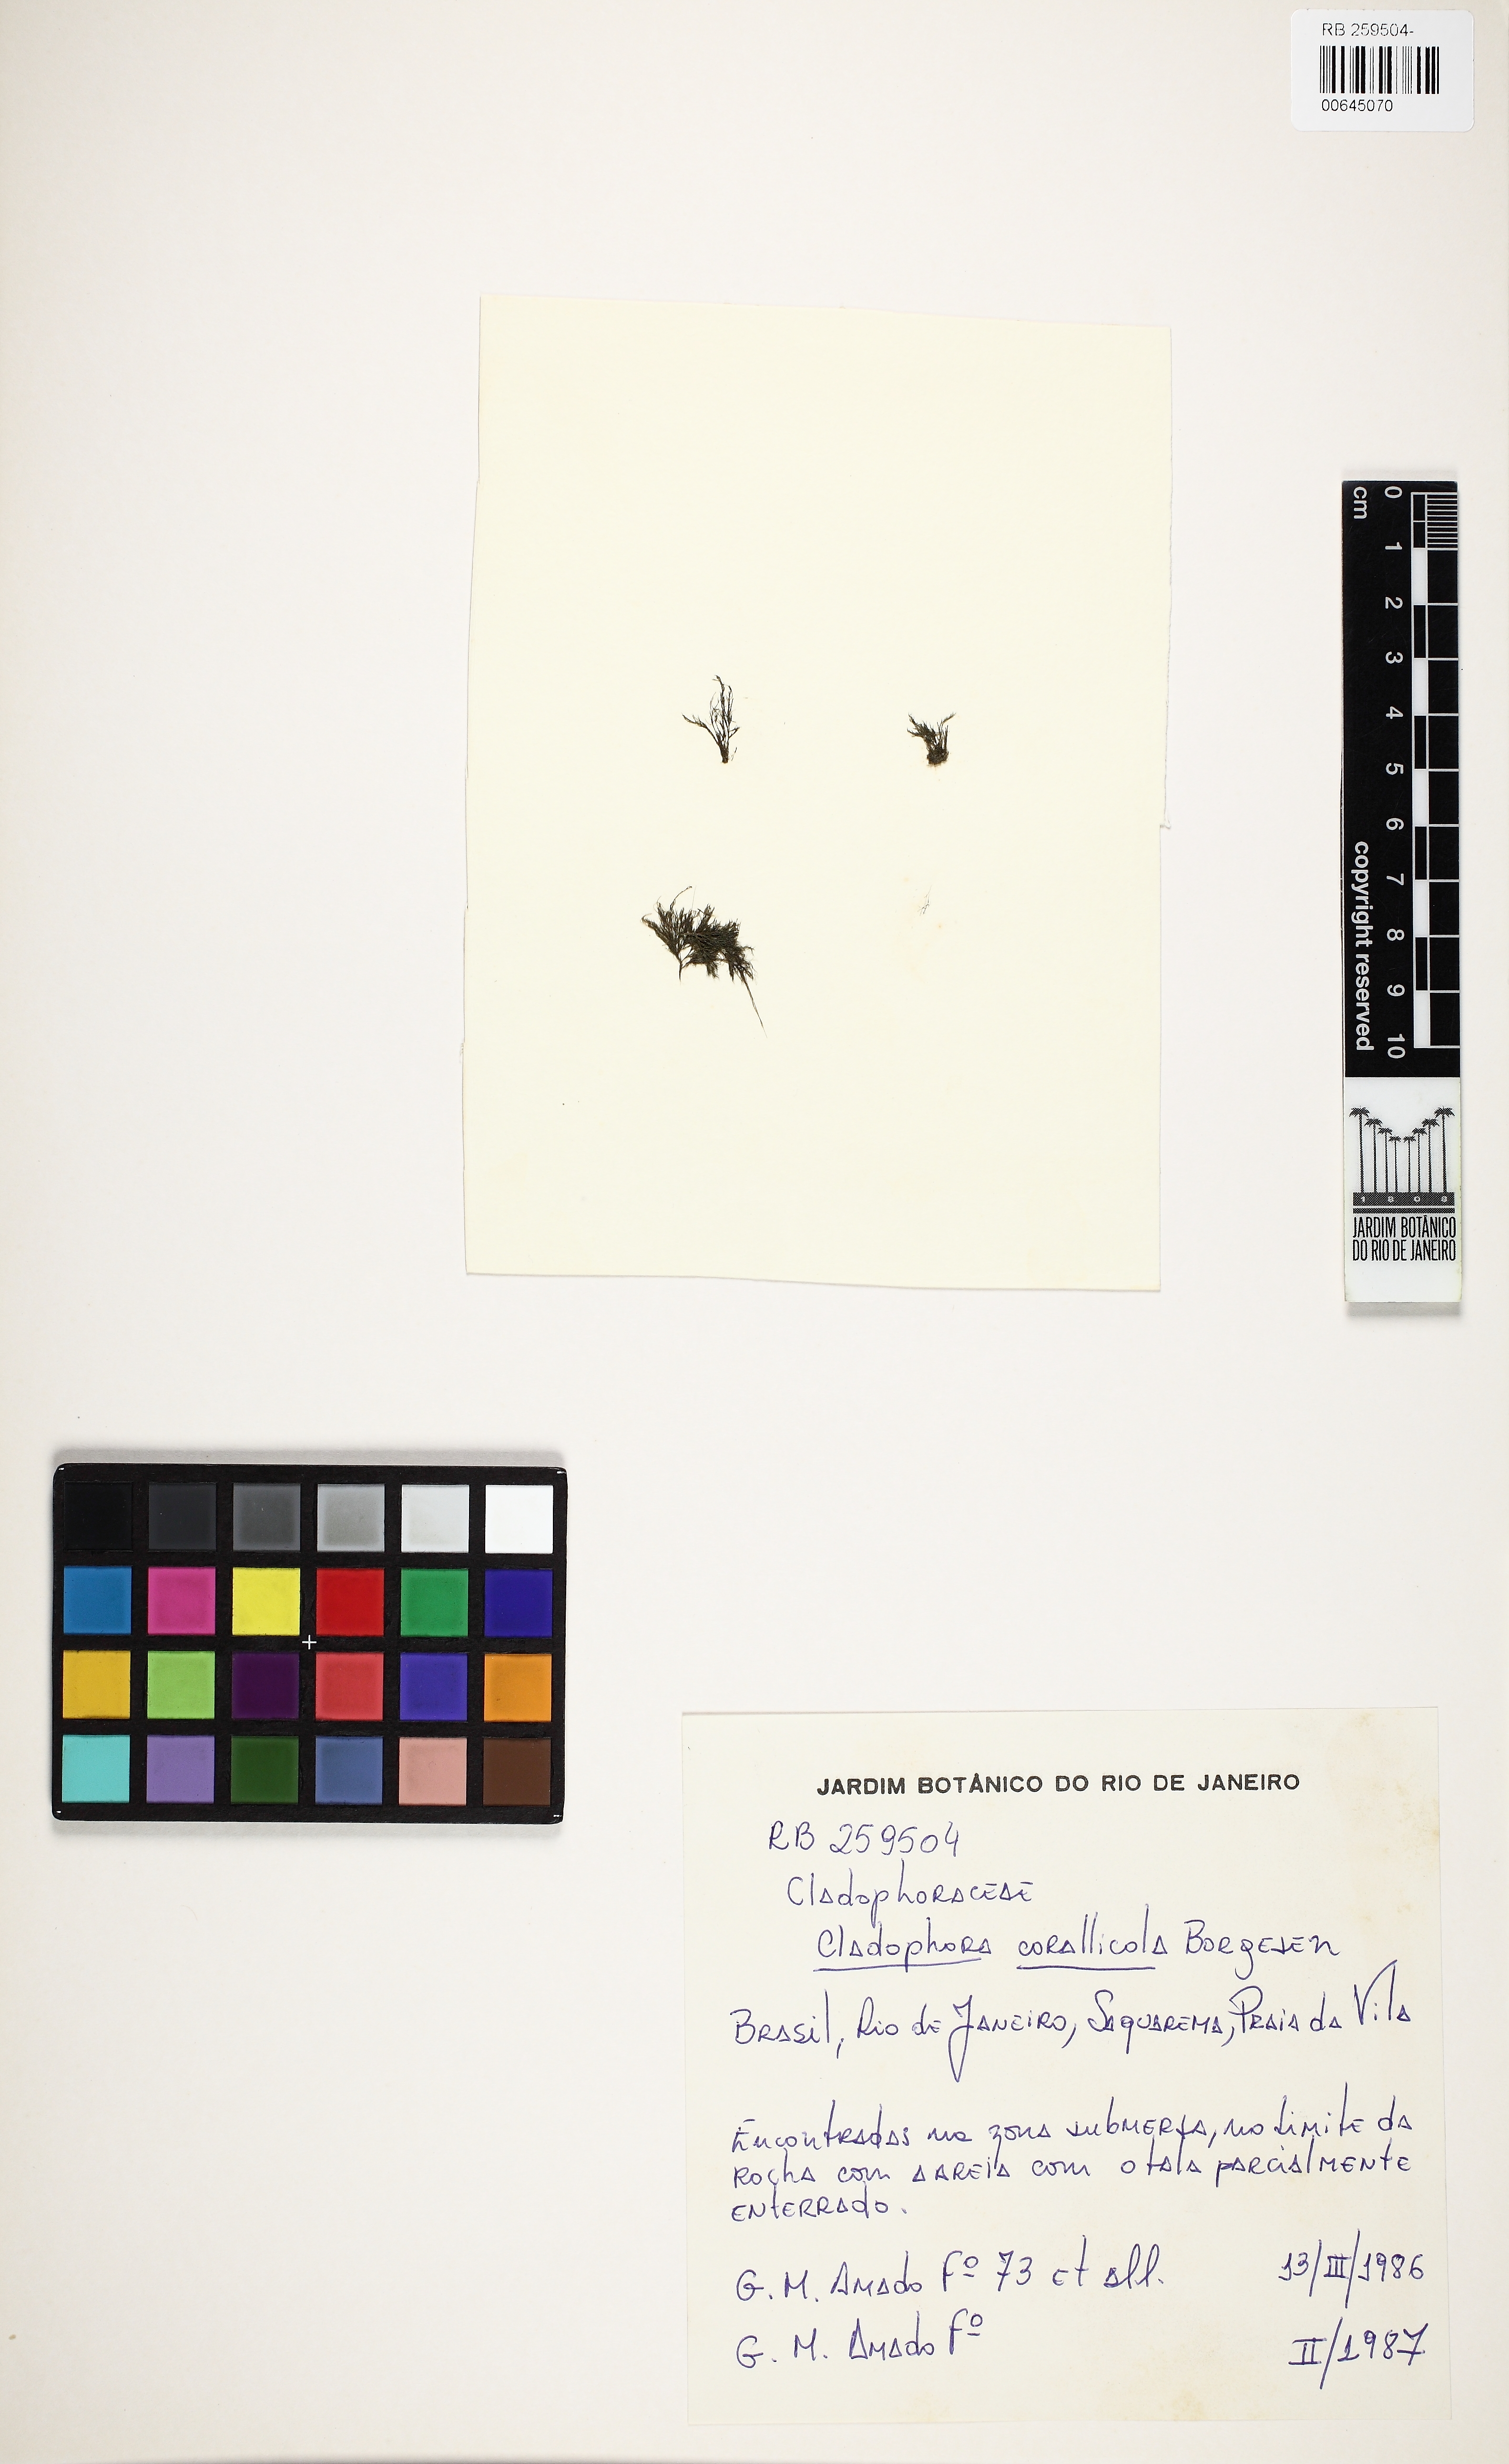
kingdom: Plantae
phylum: Chlorophyta
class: Ulvophyceae
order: Cladophorales
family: Cladophoraceae
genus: Cladophora
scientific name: Cladophora corallicola
